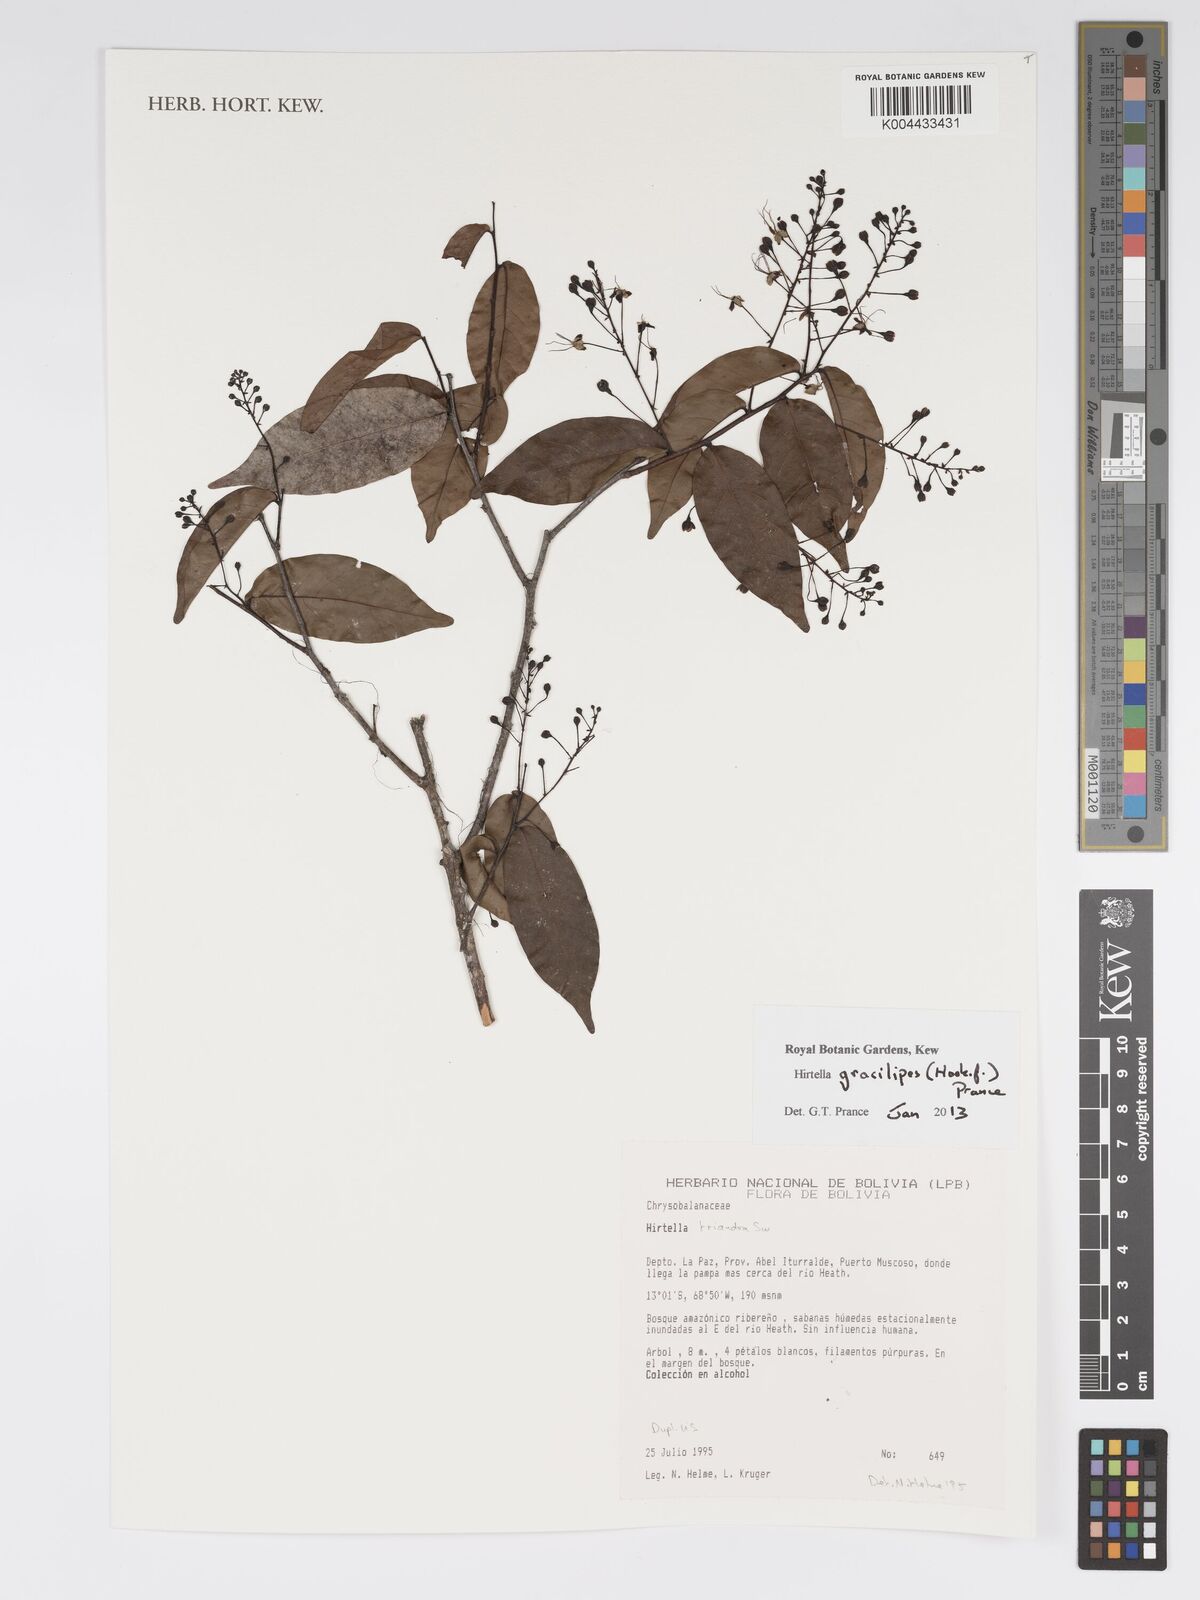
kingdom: Plantae
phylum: Tracheophyta
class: Magnoliopsida
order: Malpighiales
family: Chrysobalanaceae
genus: Hirtella
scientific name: Hirtella gracilipes
